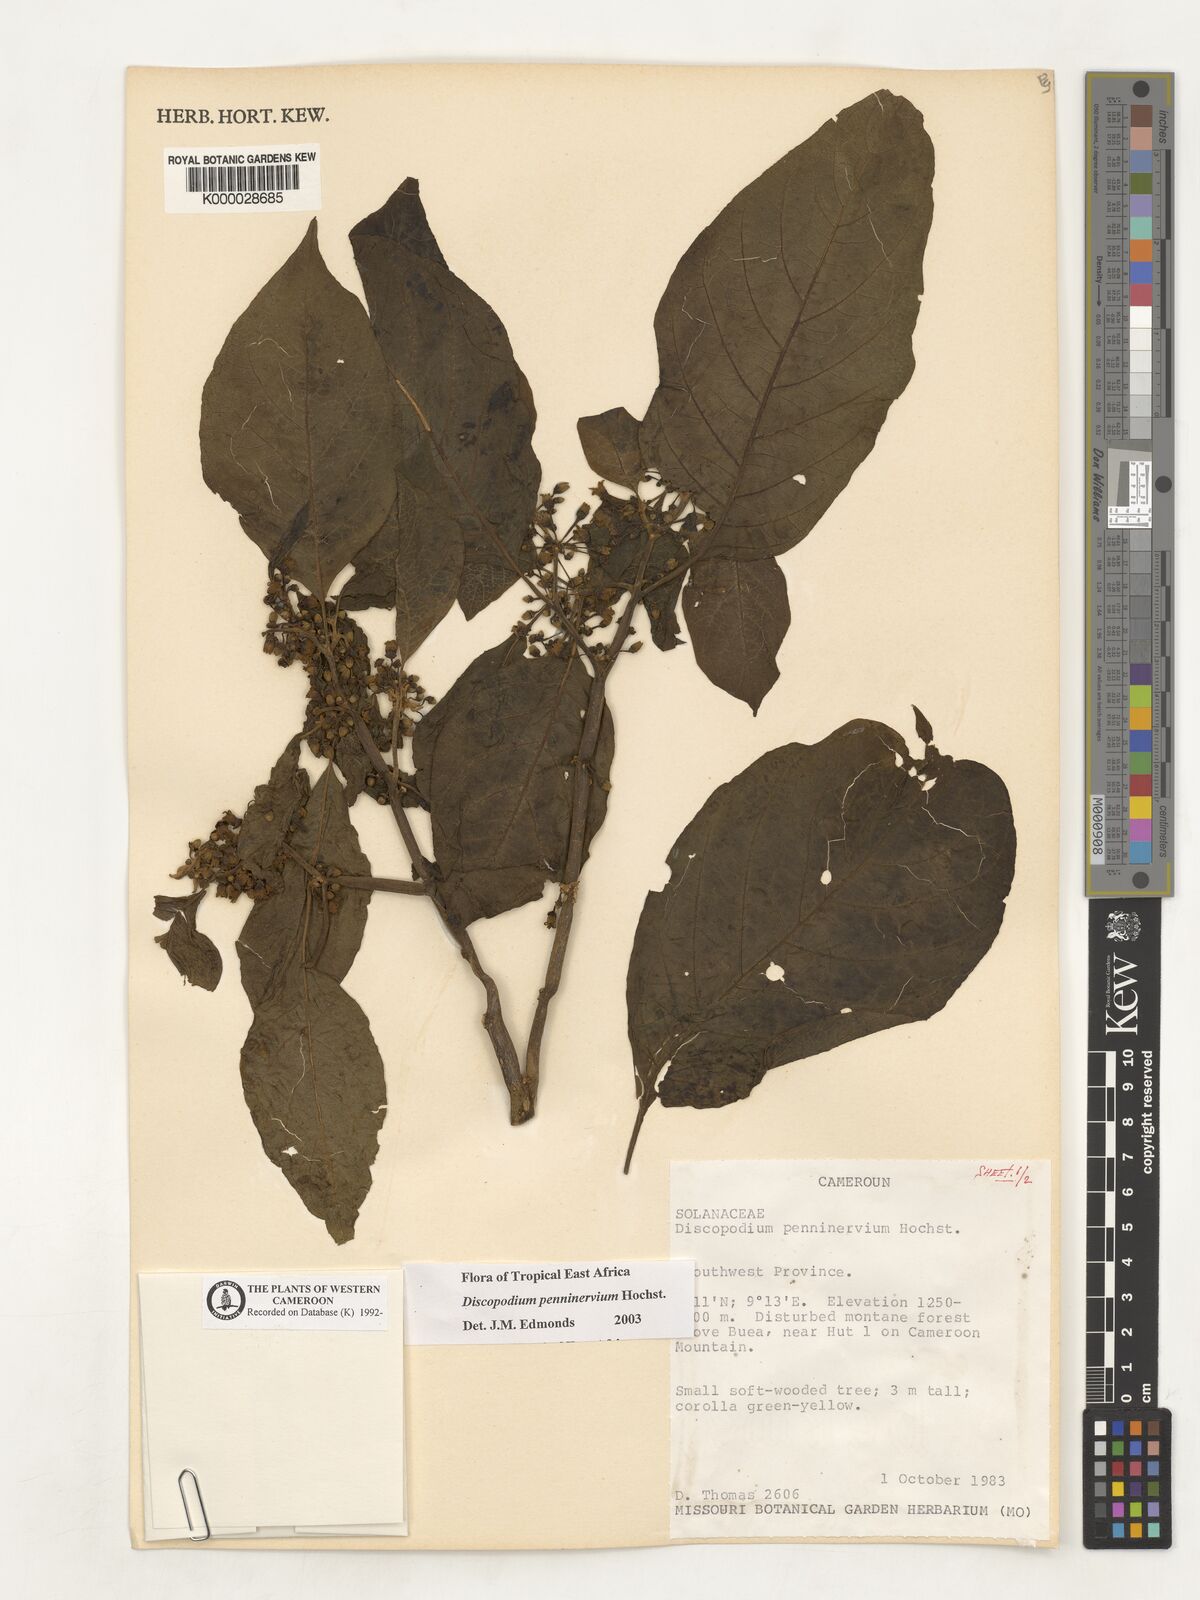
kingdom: Plantae
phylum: Tracheophyta
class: Magnoliopsida
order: Solanales
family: Solanaceae
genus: Discopodium
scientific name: Discopodium penninervium
